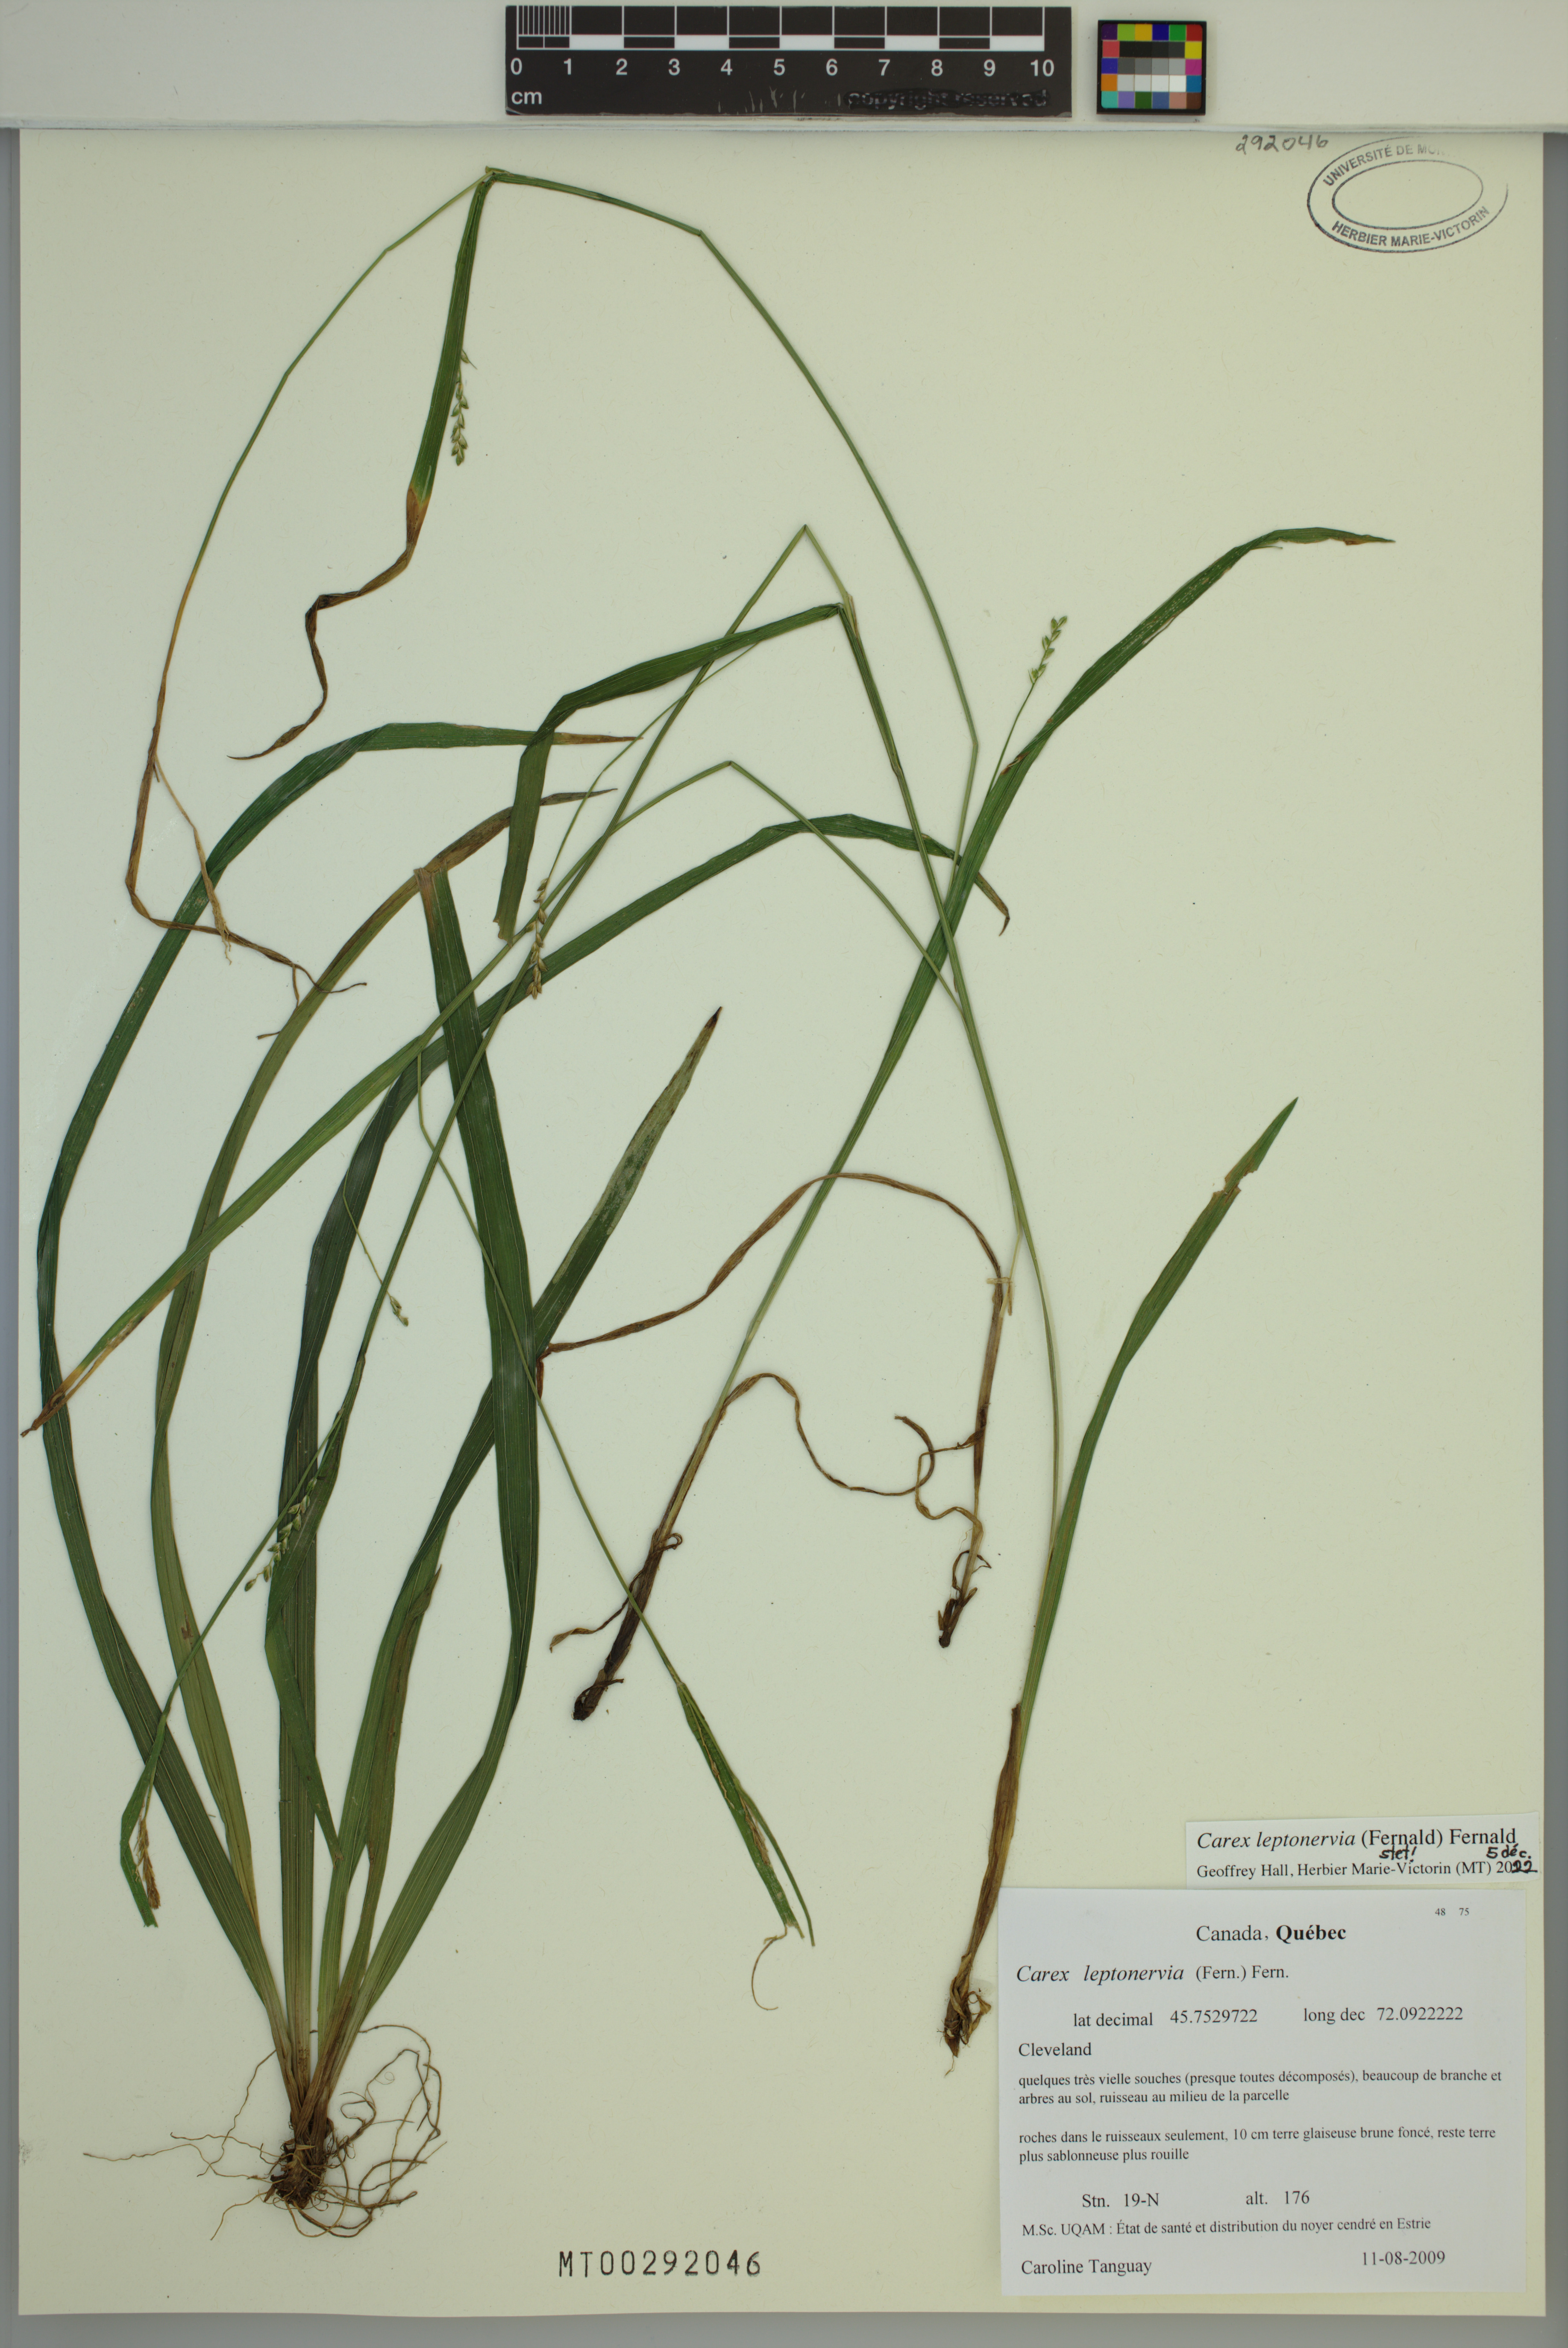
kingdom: Plantae
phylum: Tracheophyta
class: Liliopsida
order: Poales
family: Cyperaceae
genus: Carex
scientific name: Carex leptonervia
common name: Few-nerved wood sedge
